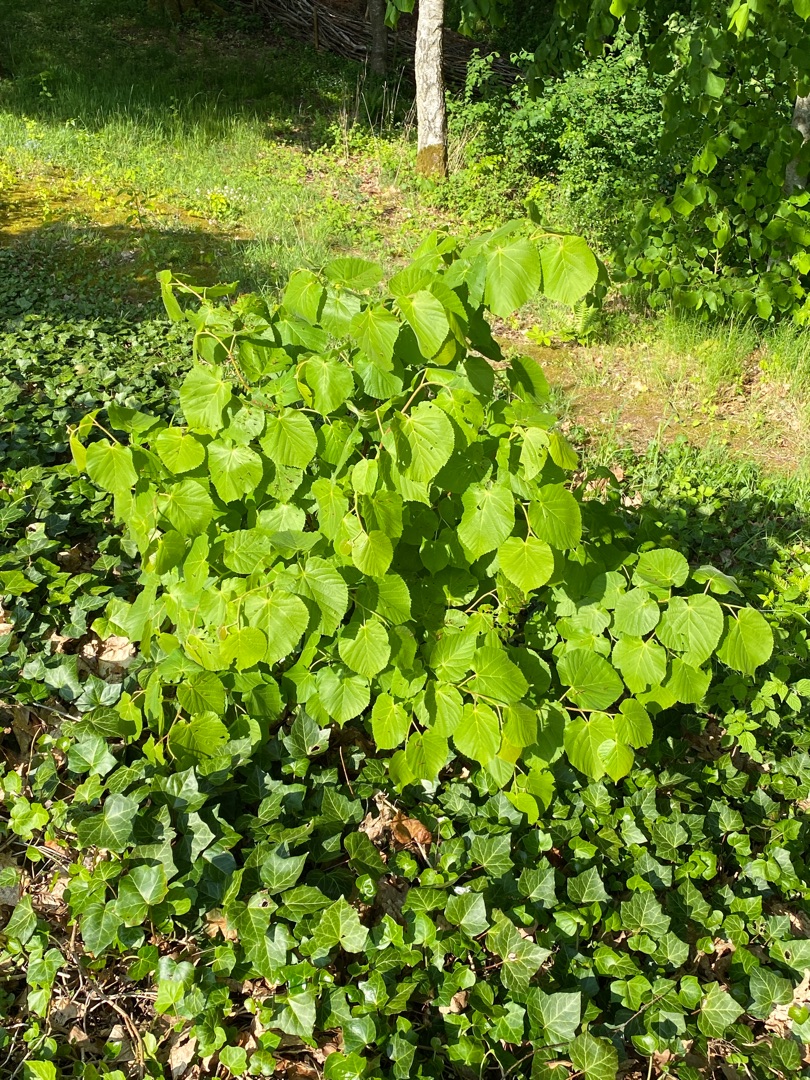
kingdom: Plantae
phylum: Tracheophyta
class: Magnoliopsida
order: Malvales
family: Malvaceae
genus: Tilia
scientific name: Tilia platyphyllos
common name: Storbladet lind
